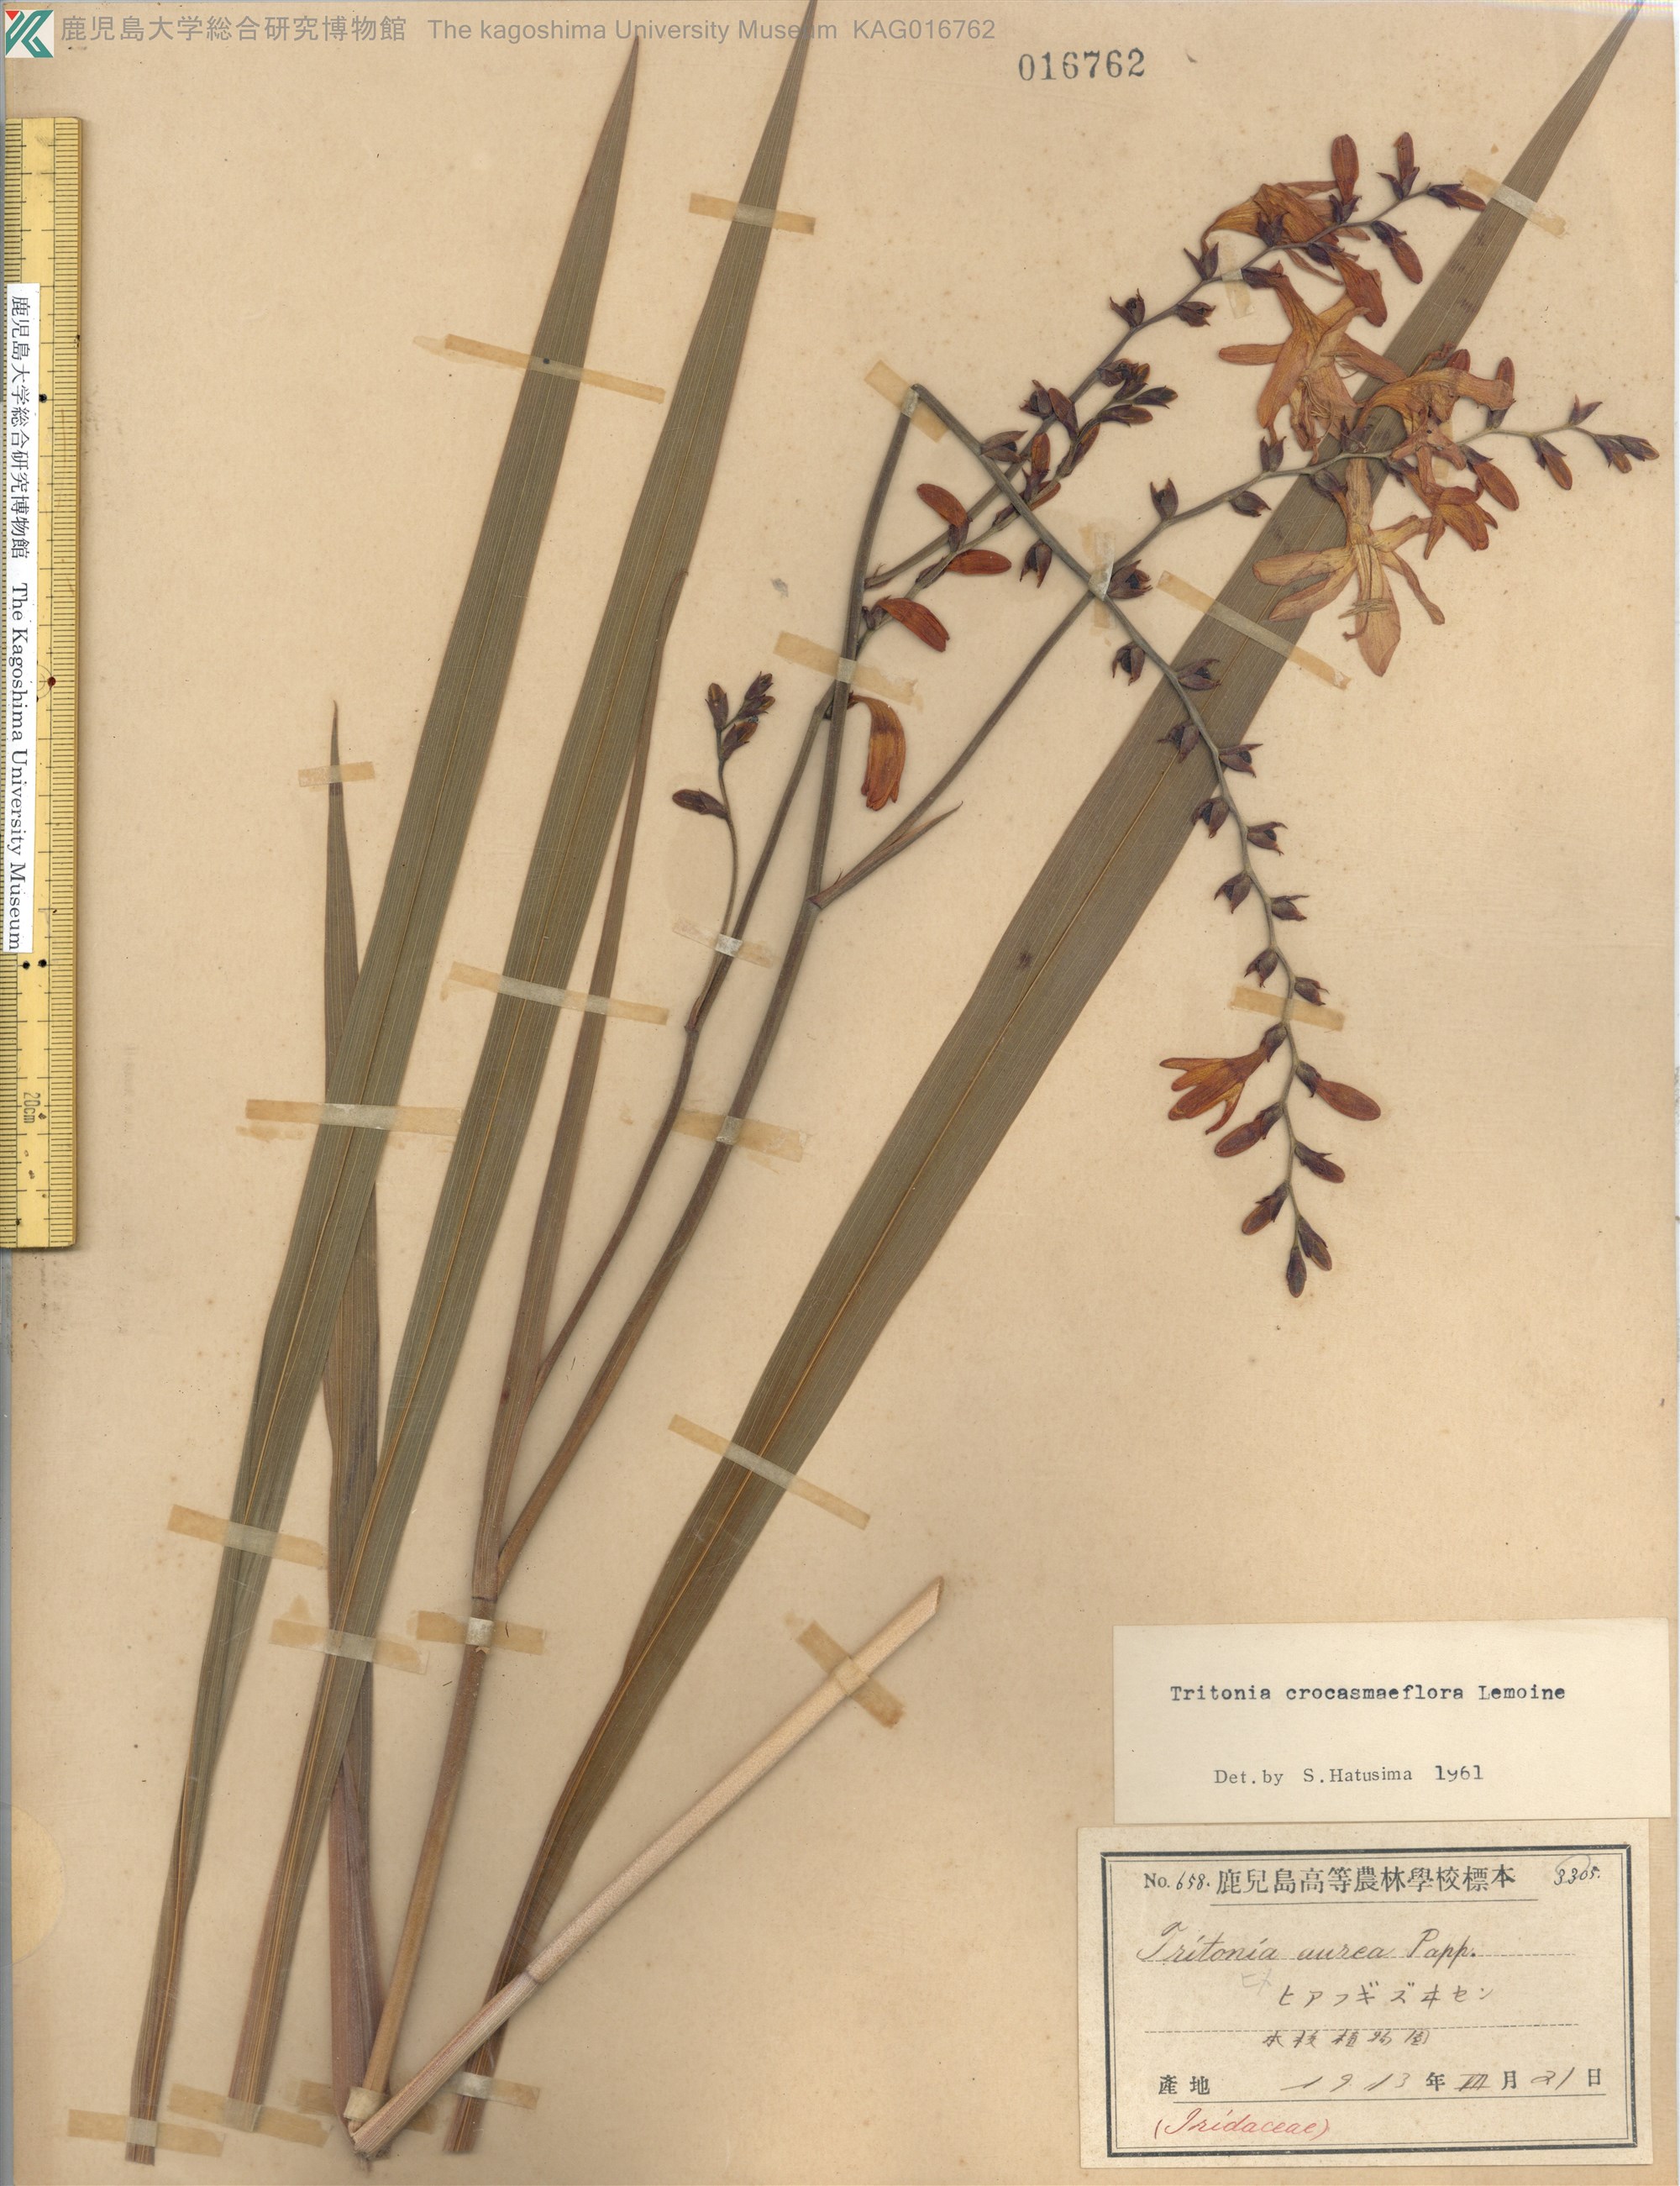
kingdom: Plantae
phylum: Tracheophyta
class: Liliopsida
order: Asparagales
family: Iridaceae
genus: Crocosmia
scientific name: Crocosmia crocosmiiflora
